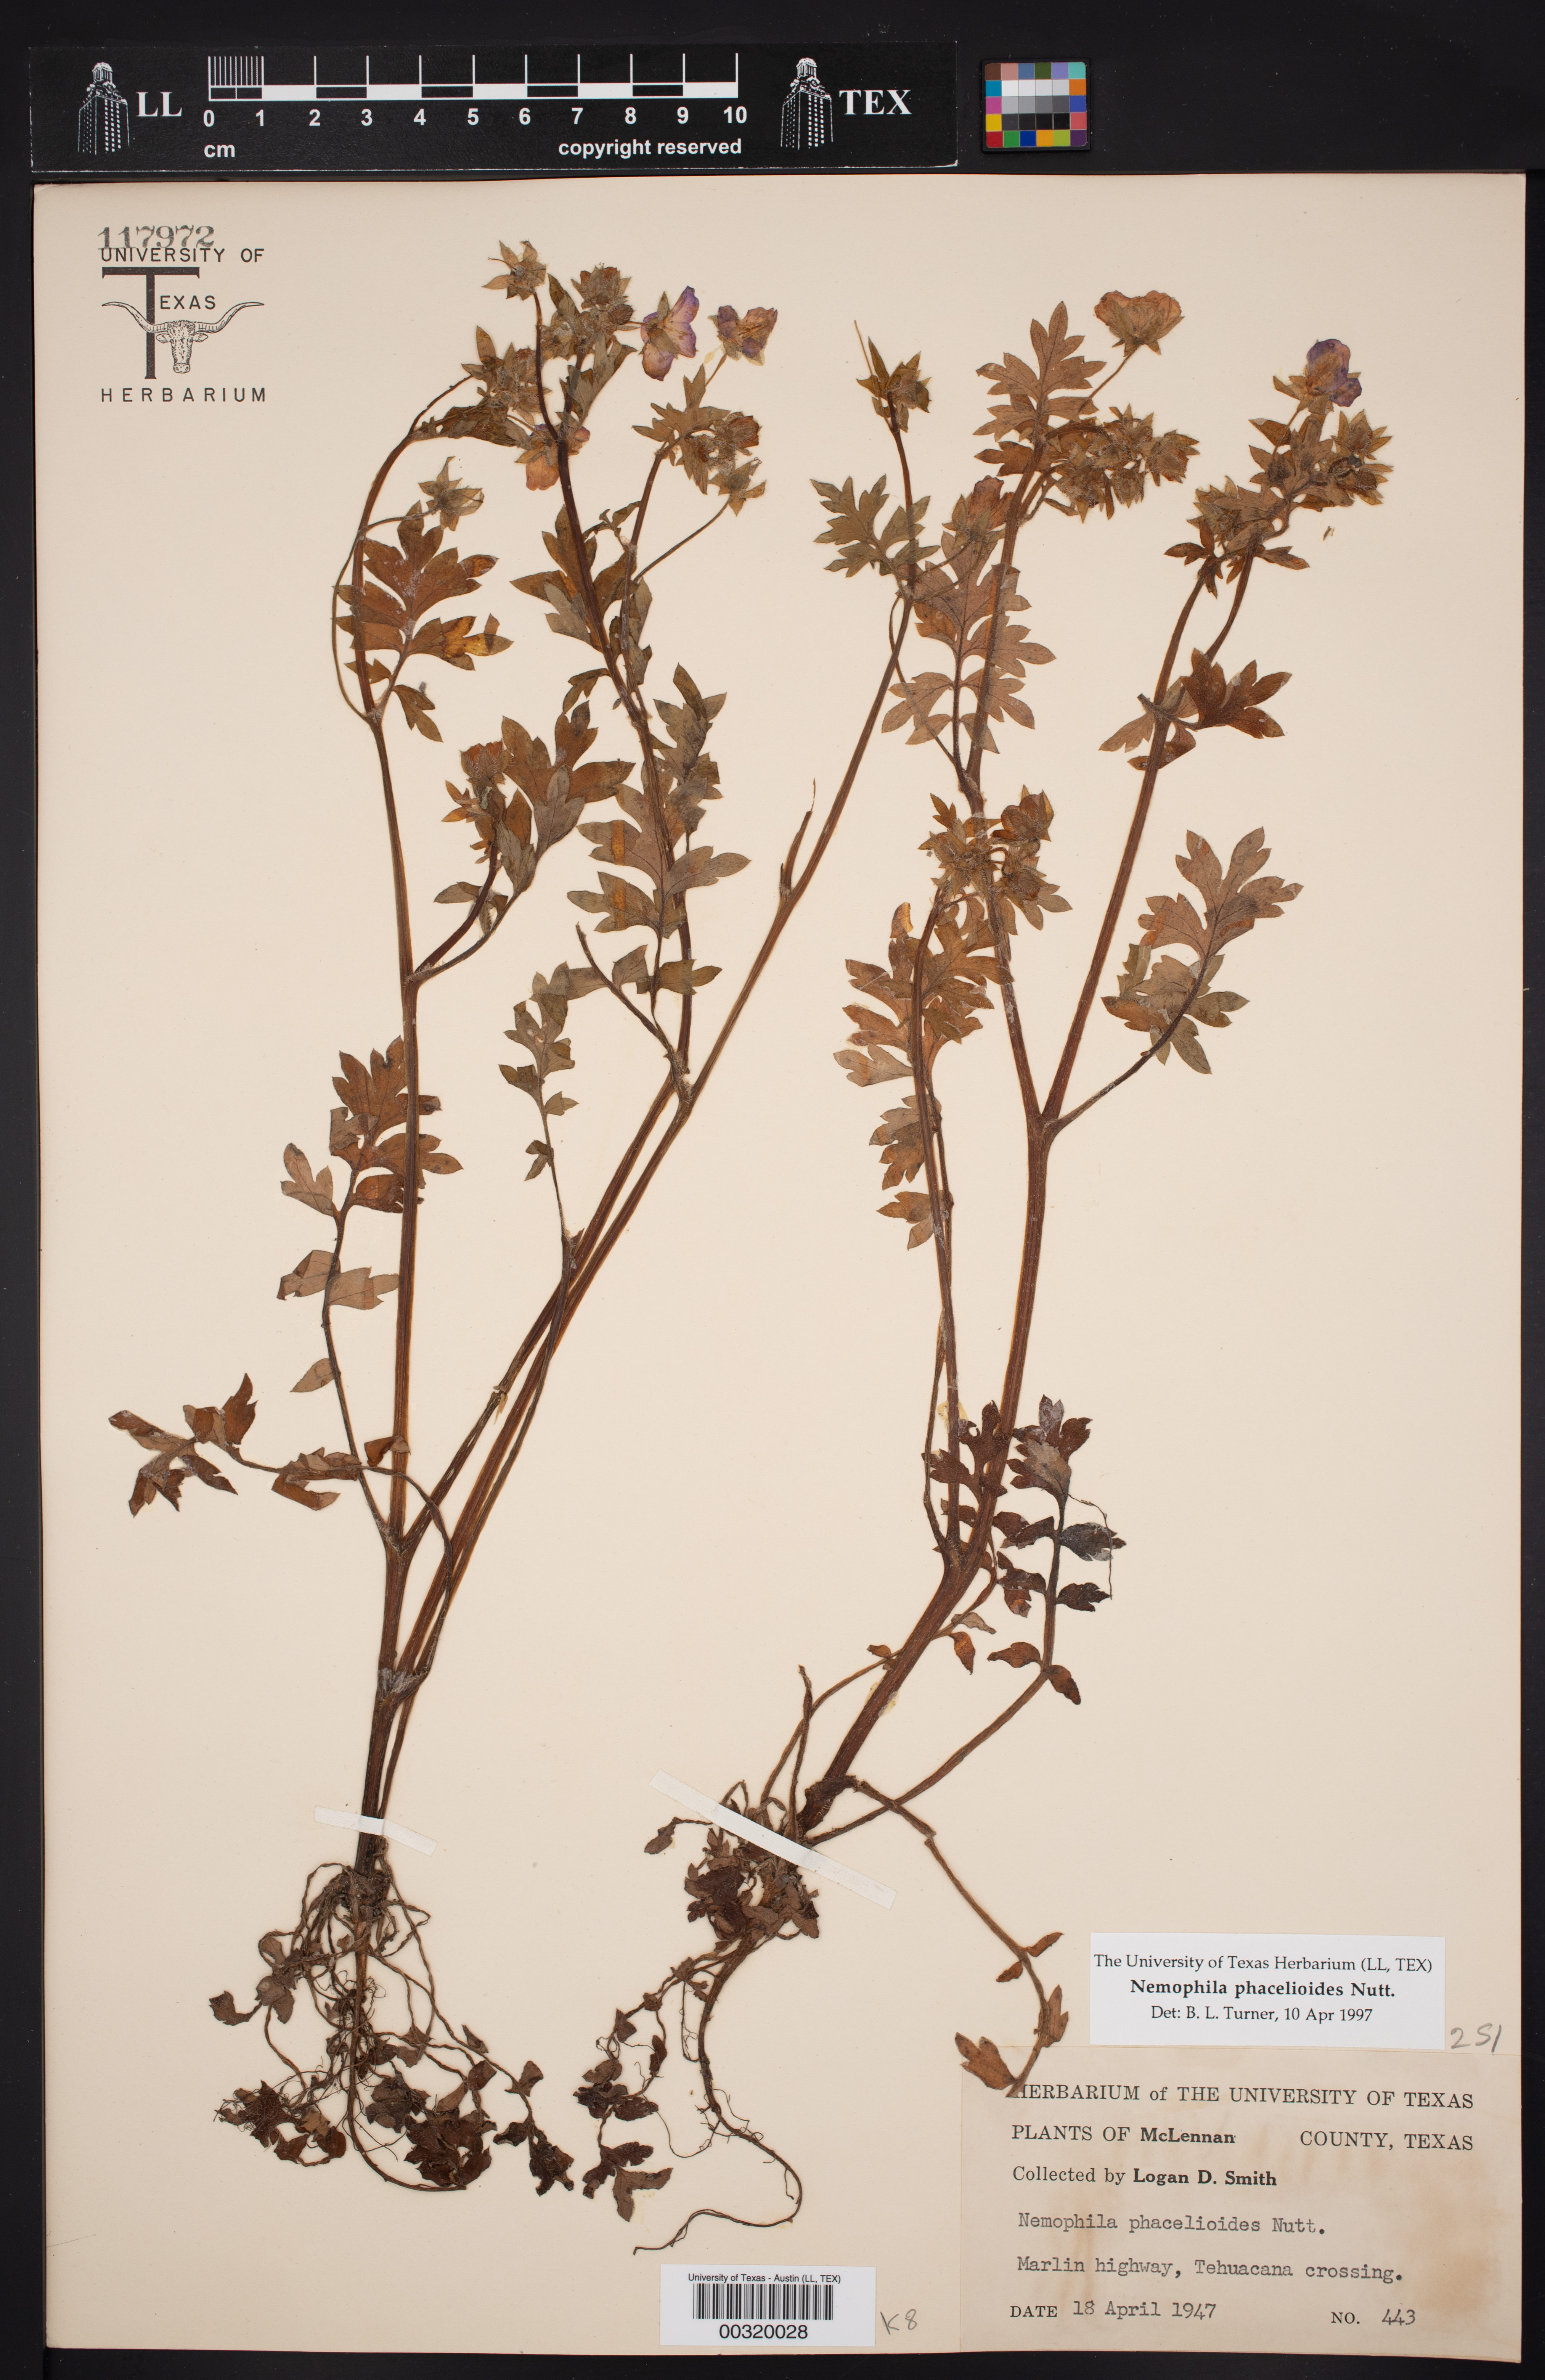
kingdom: Plantae
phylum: Tracheophyta
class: Magnoliopsida
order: Boraginales
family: Hydrophyllaceae
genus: Nemophila
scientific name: Nemophila phacelioides
